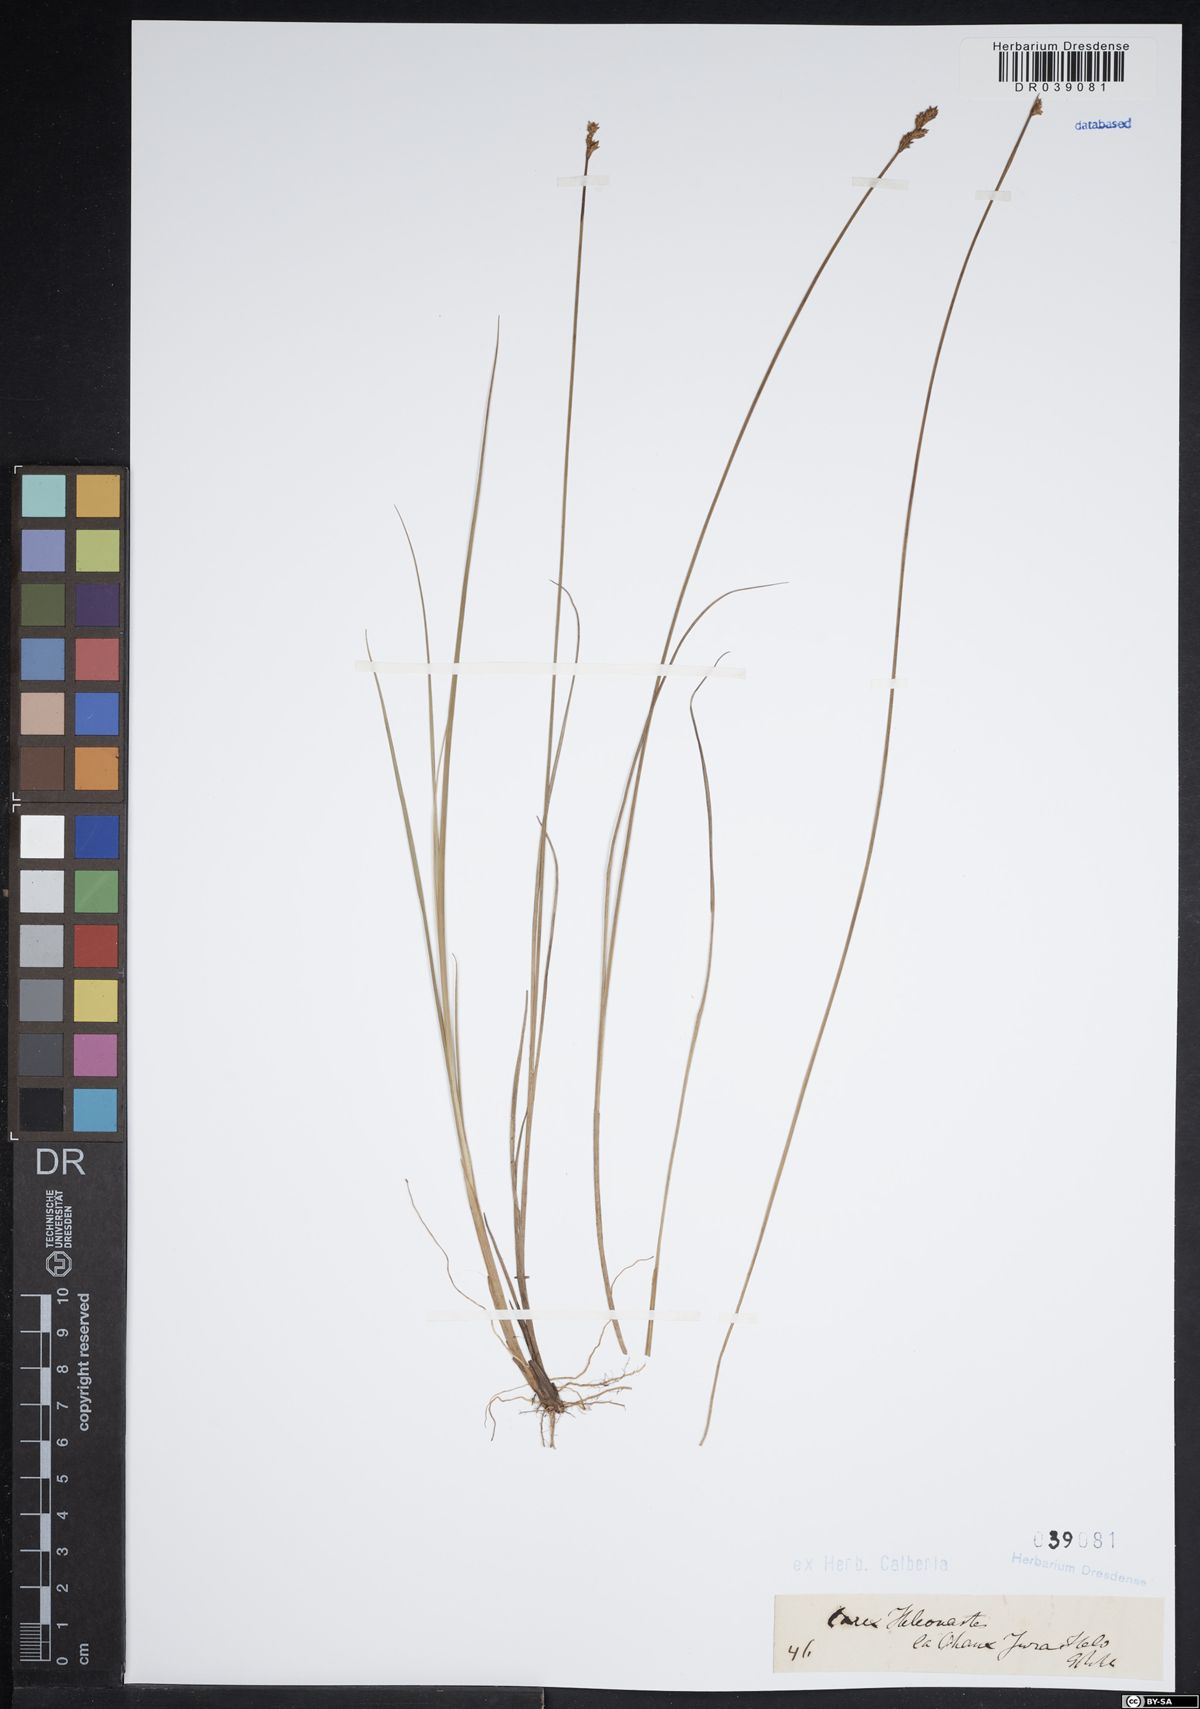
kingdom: Plantae
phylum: Tracheophyta
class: Liliopsida
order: Poales
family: Cyperaceae
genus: Carex
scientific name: Carex heleonastes
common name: Hudson bay sedge
